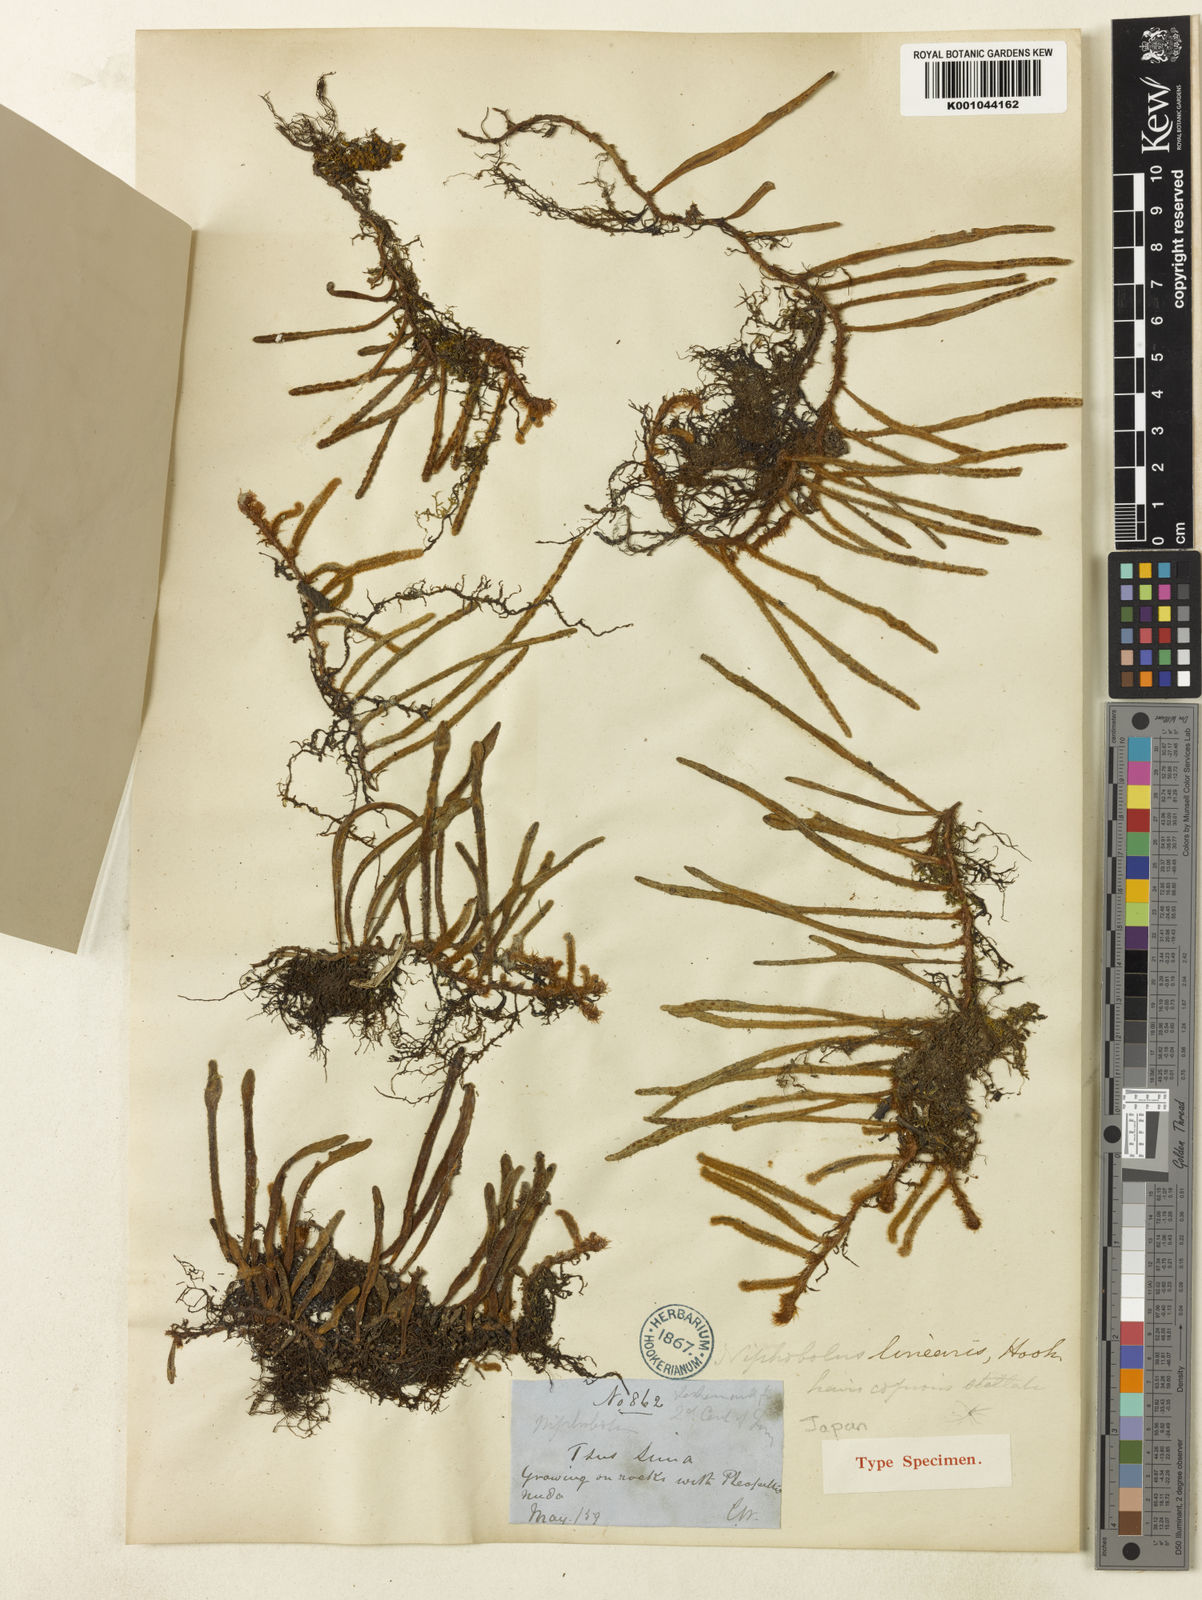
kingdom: Plantae
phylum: Tracheophyta
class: Polypodiopsida
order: Polypodiales
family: Polypodiaceae
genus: Pyrrosia
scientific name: Pyrrosia linearifolia
